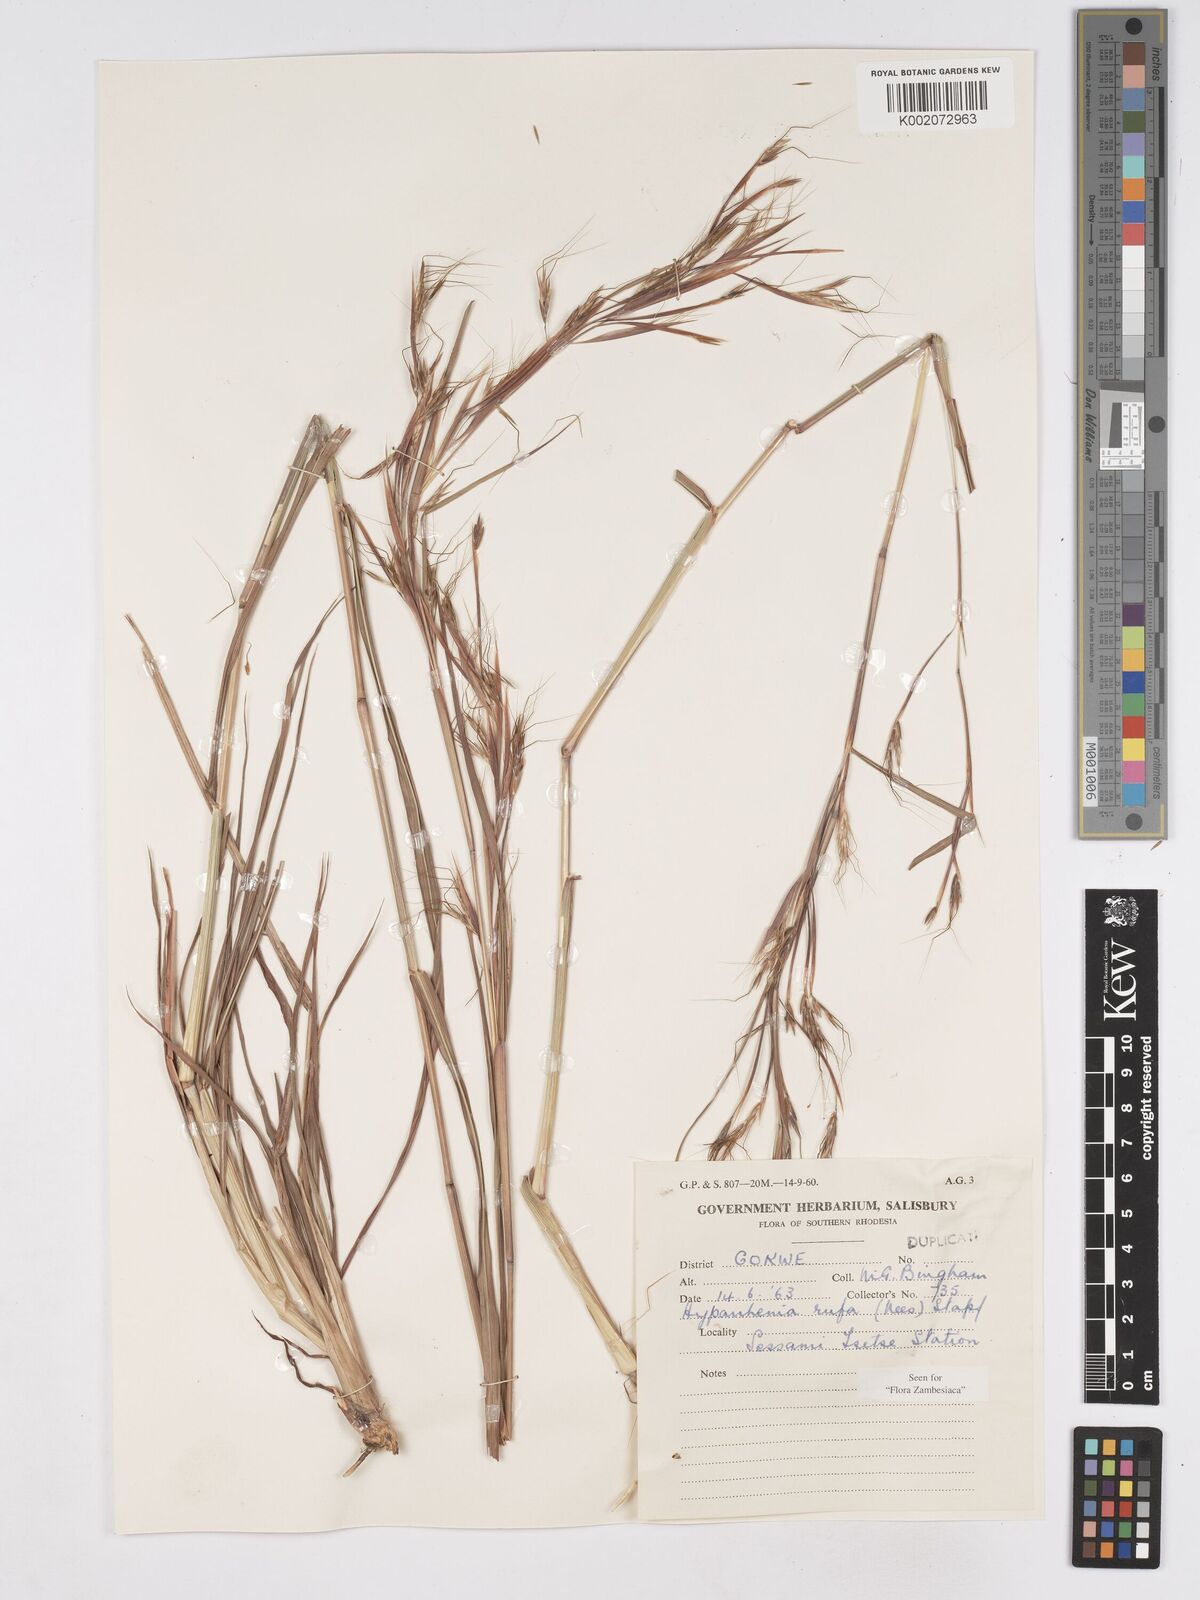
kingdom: Plantae
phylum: Tracheophyta
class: Liliopsida
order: Poales
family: Poaceae
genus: Hyparrhenia
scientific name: Hyparrhenia rufa
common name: Jaraguagrass
